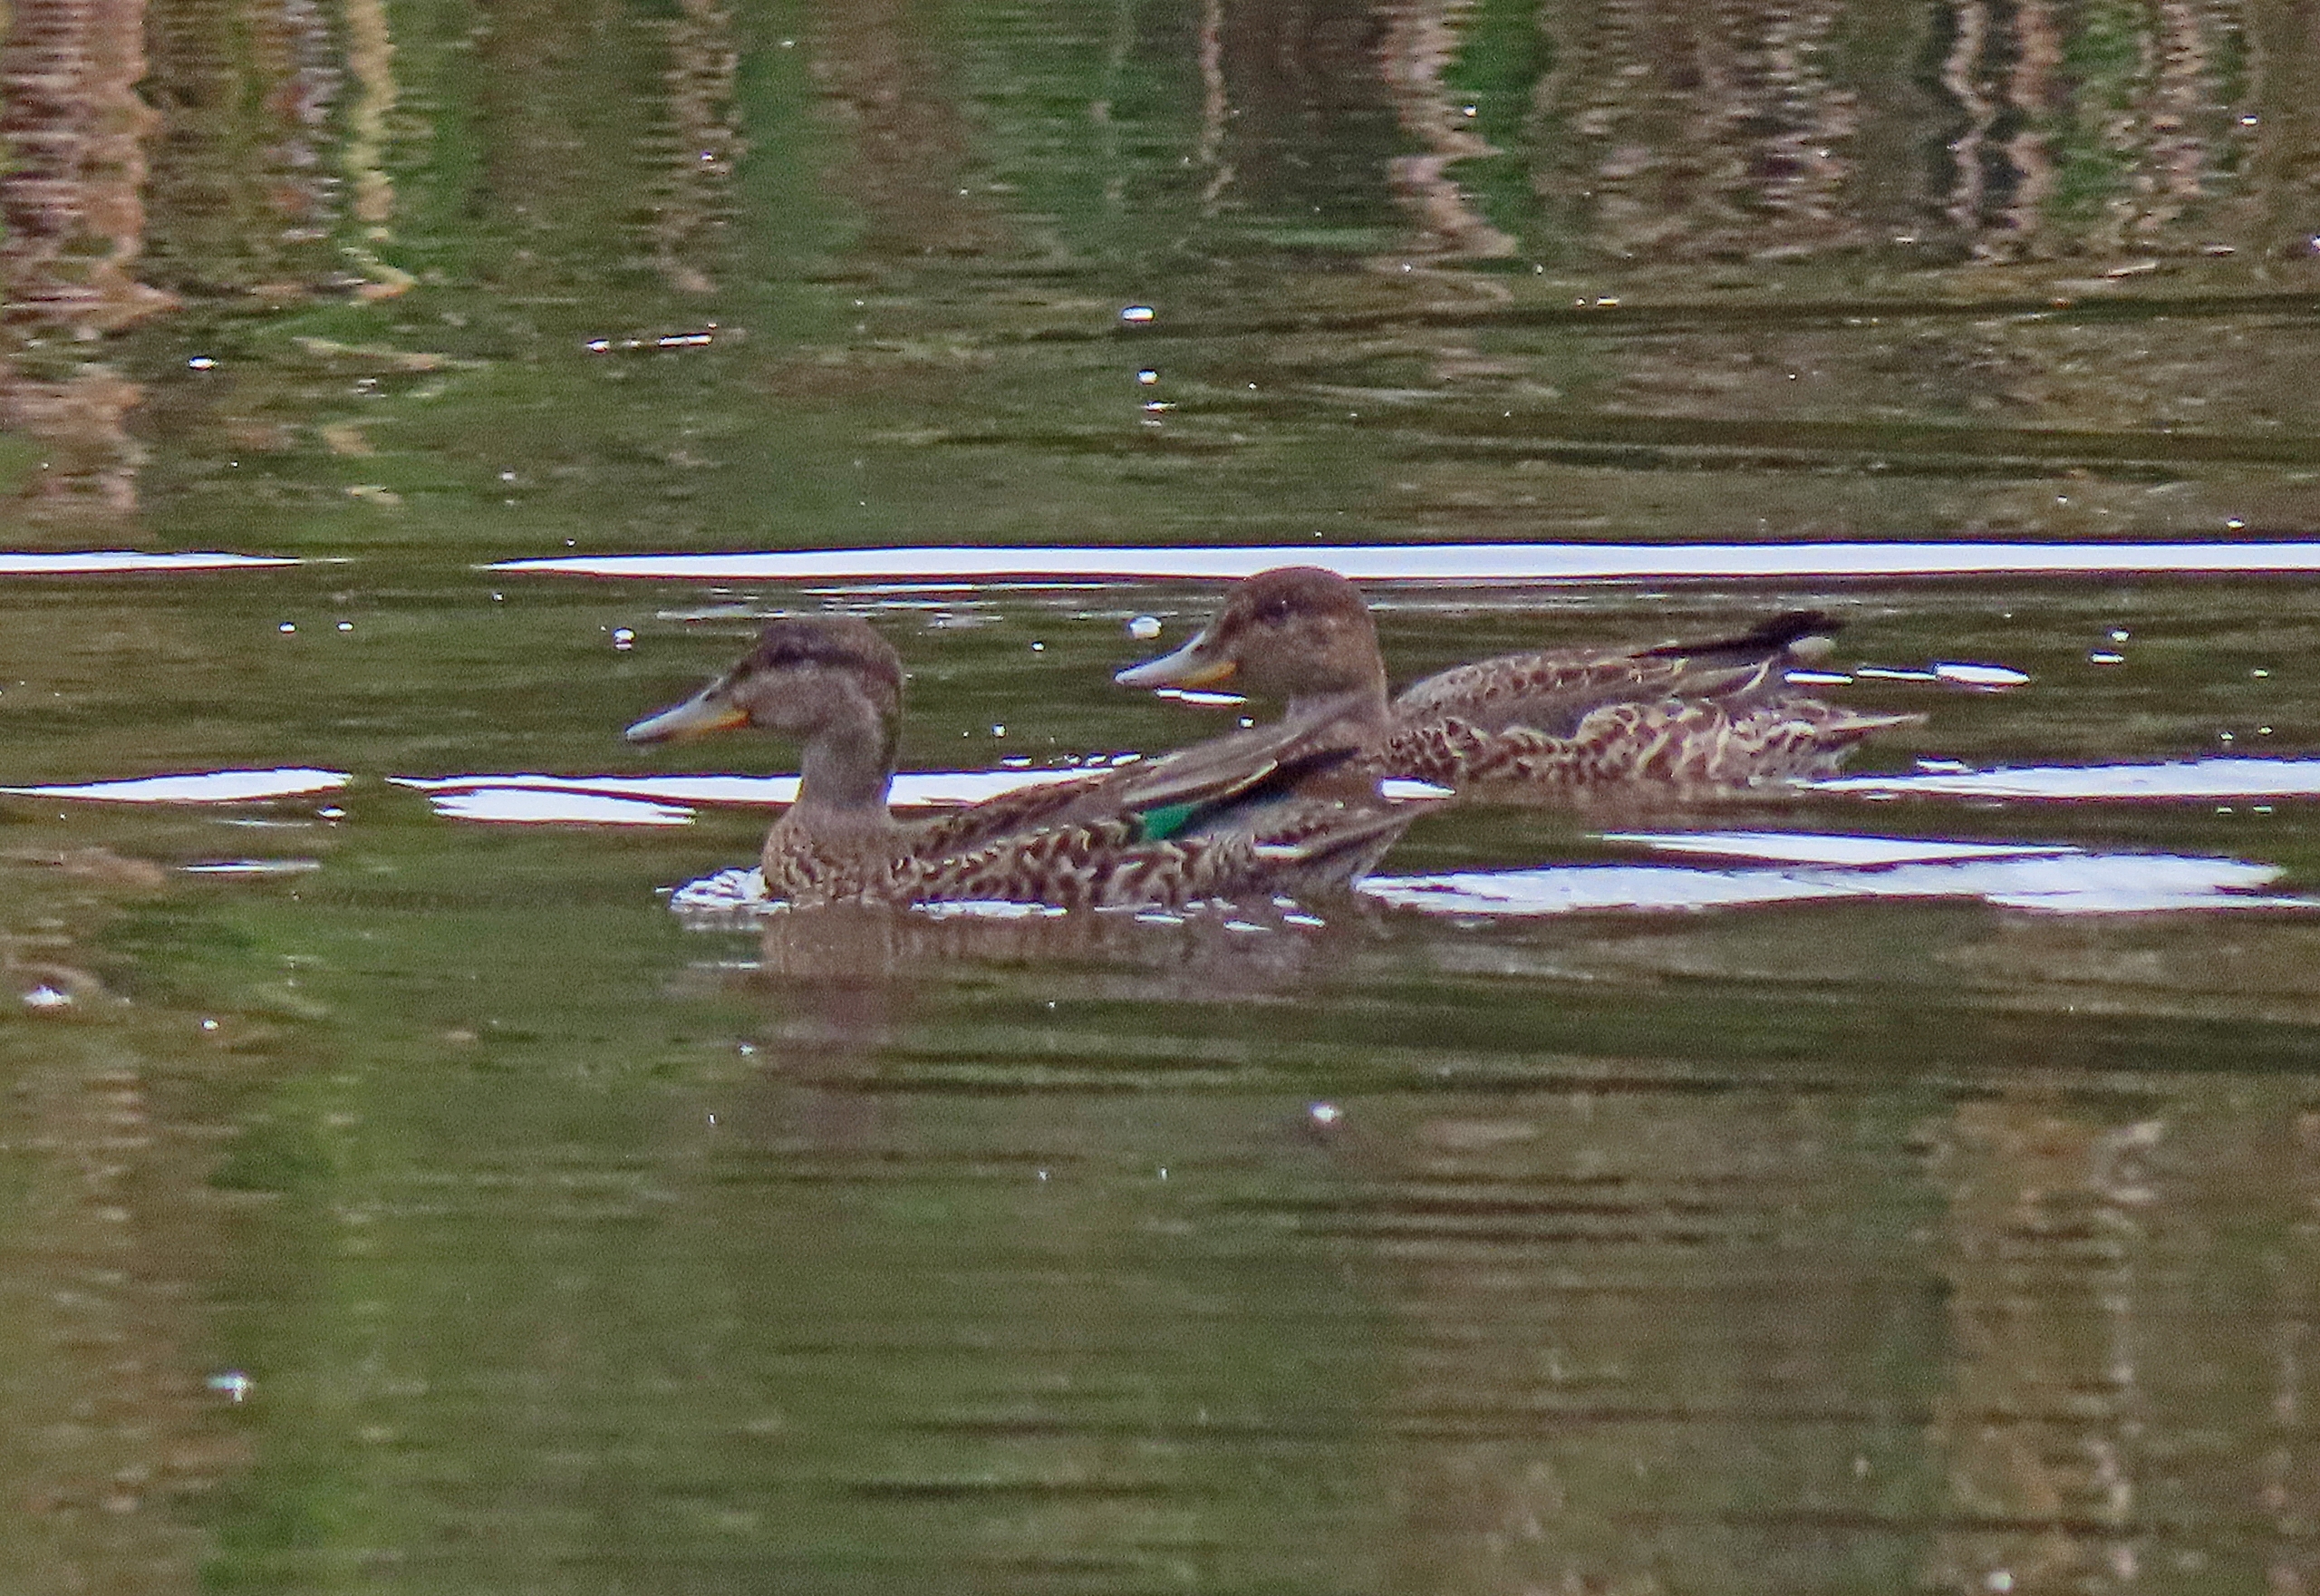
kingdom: Animalia
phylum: Chordata
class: Aves
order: Anseriformes
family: Anatidae
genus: Anas
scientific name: Anas crecca
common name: Krikand
